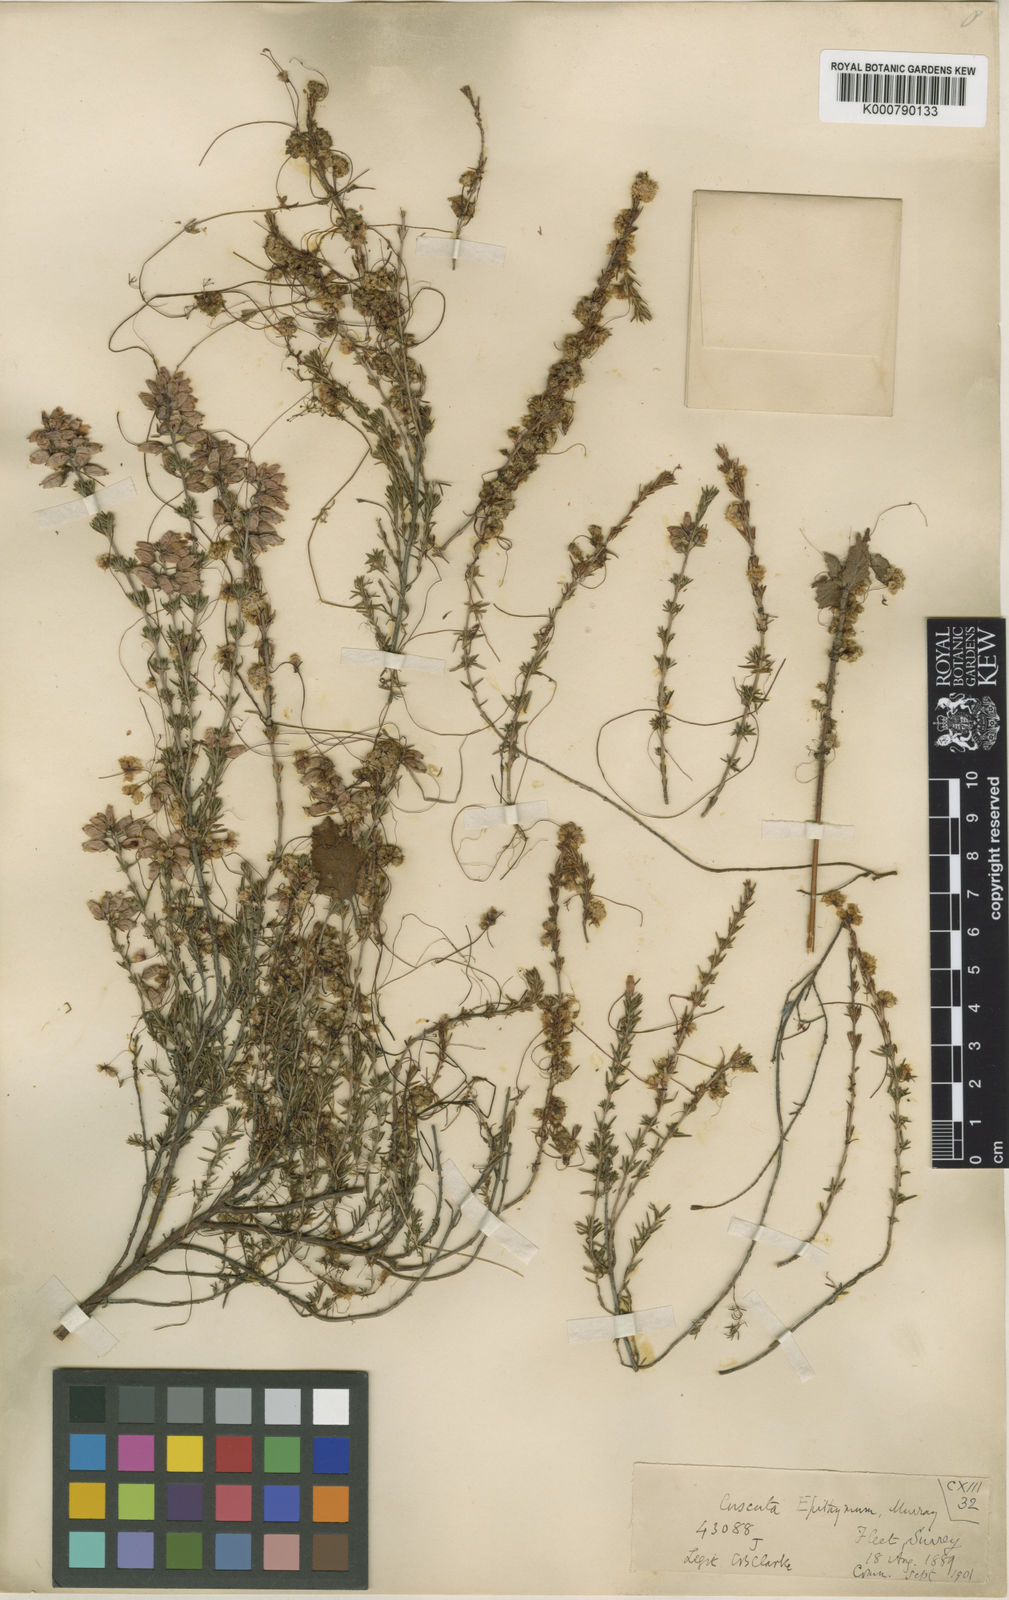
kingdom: Plantae
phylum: Tracheophyta
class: Magnoliopsida
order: Solanales
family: Convolvulaceae
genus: Cuscuta
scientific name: Cuscuta epithymum
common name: Clover dodder
